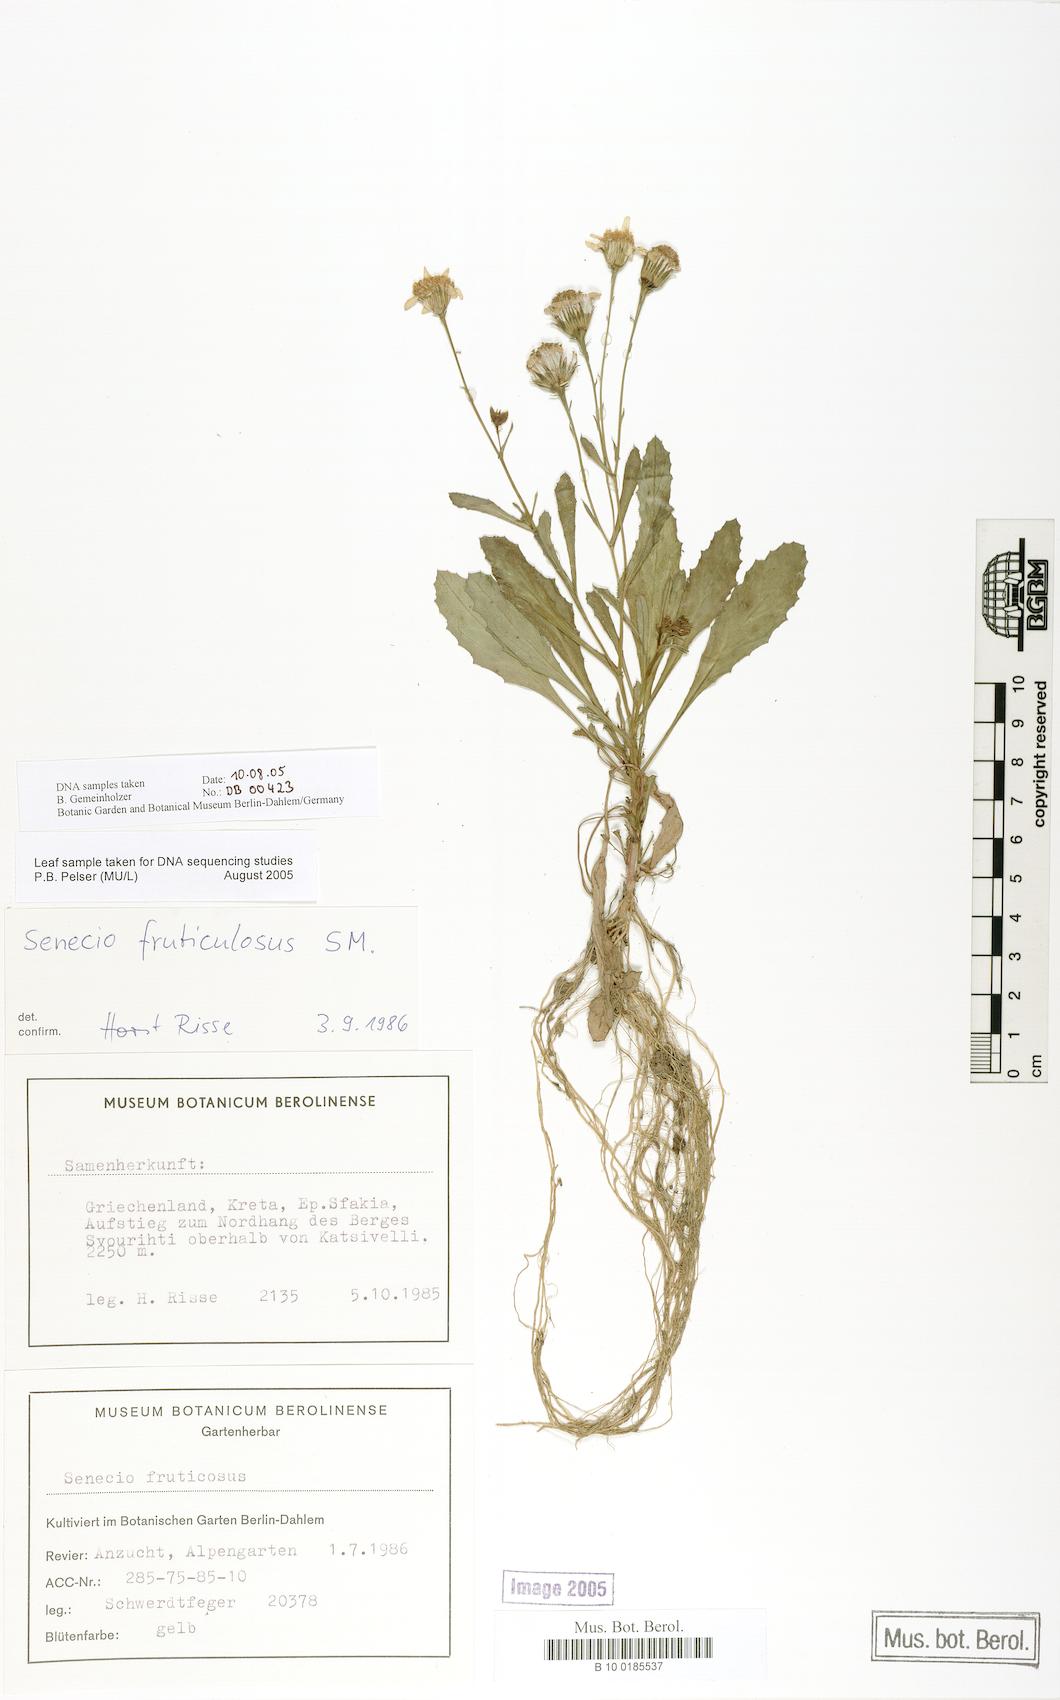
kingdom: Plantae
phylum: Tracheophyta
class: Magnoliopsida
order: Asterales
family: Asteraceae
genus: Senecio
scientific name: Senecio fruticulosus
